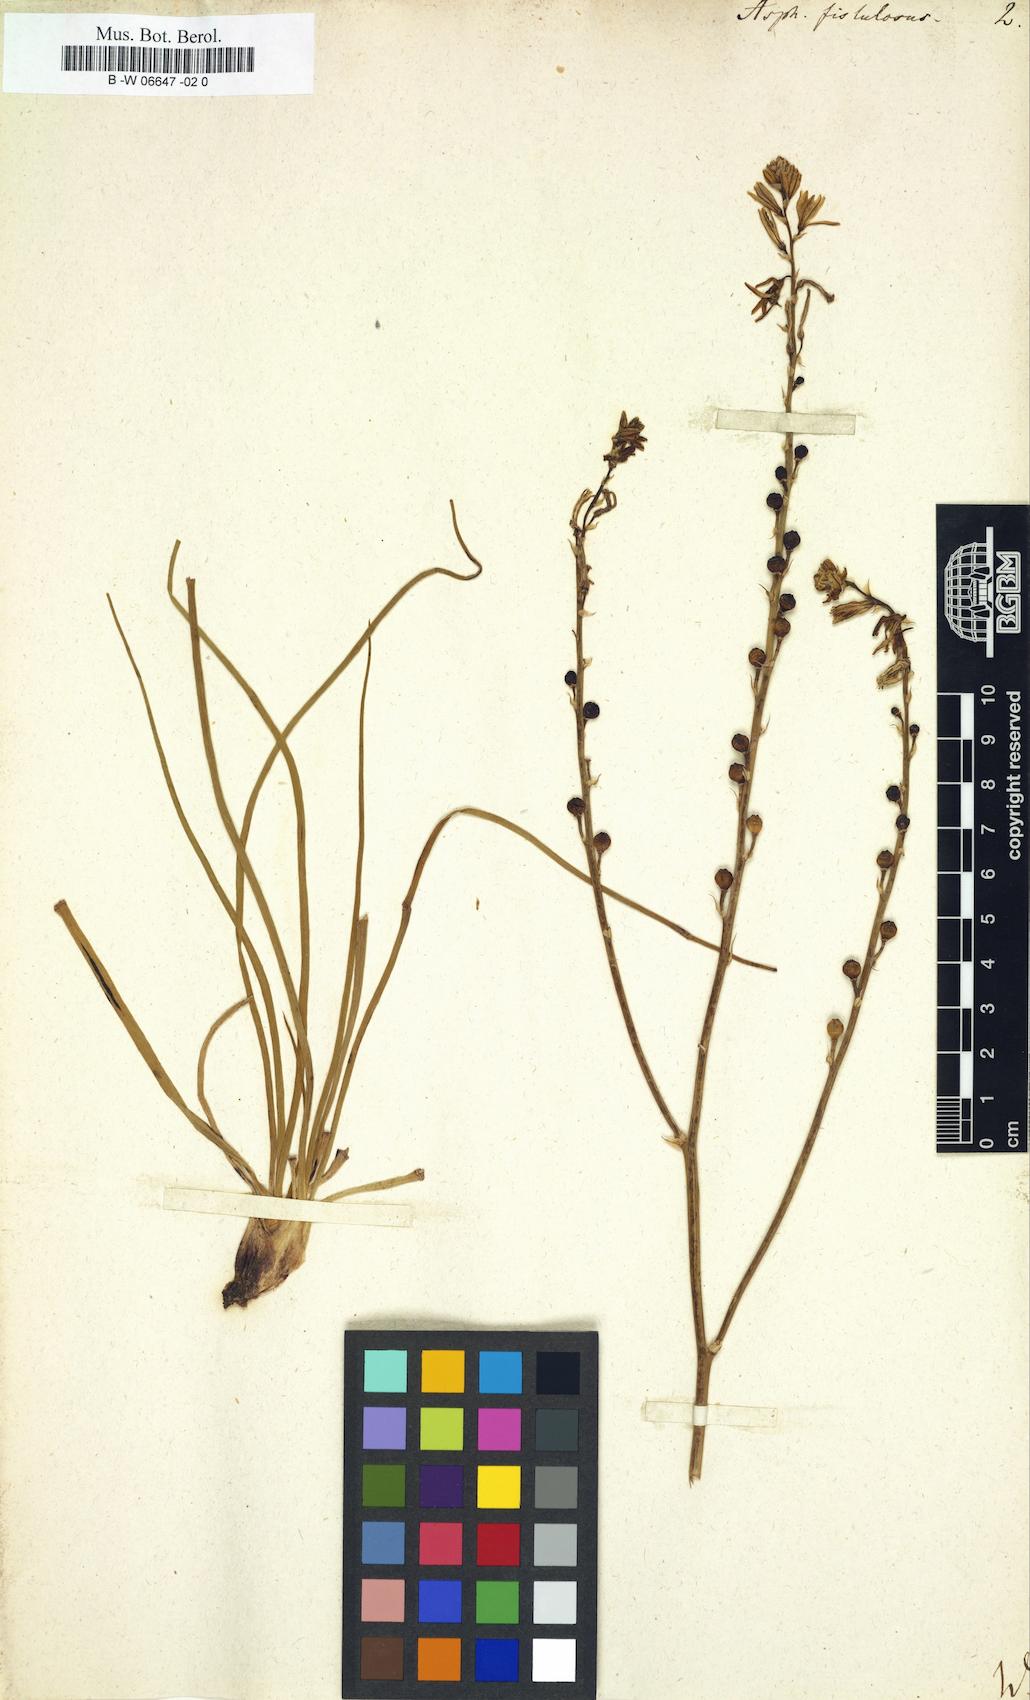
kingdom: Plantae
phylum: Tracheophyta
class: Liliopsida
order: Asparagales
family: Asphodelaceae
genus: Asphodelus
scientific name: Asphodelus fistulosus
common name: Onionweed
